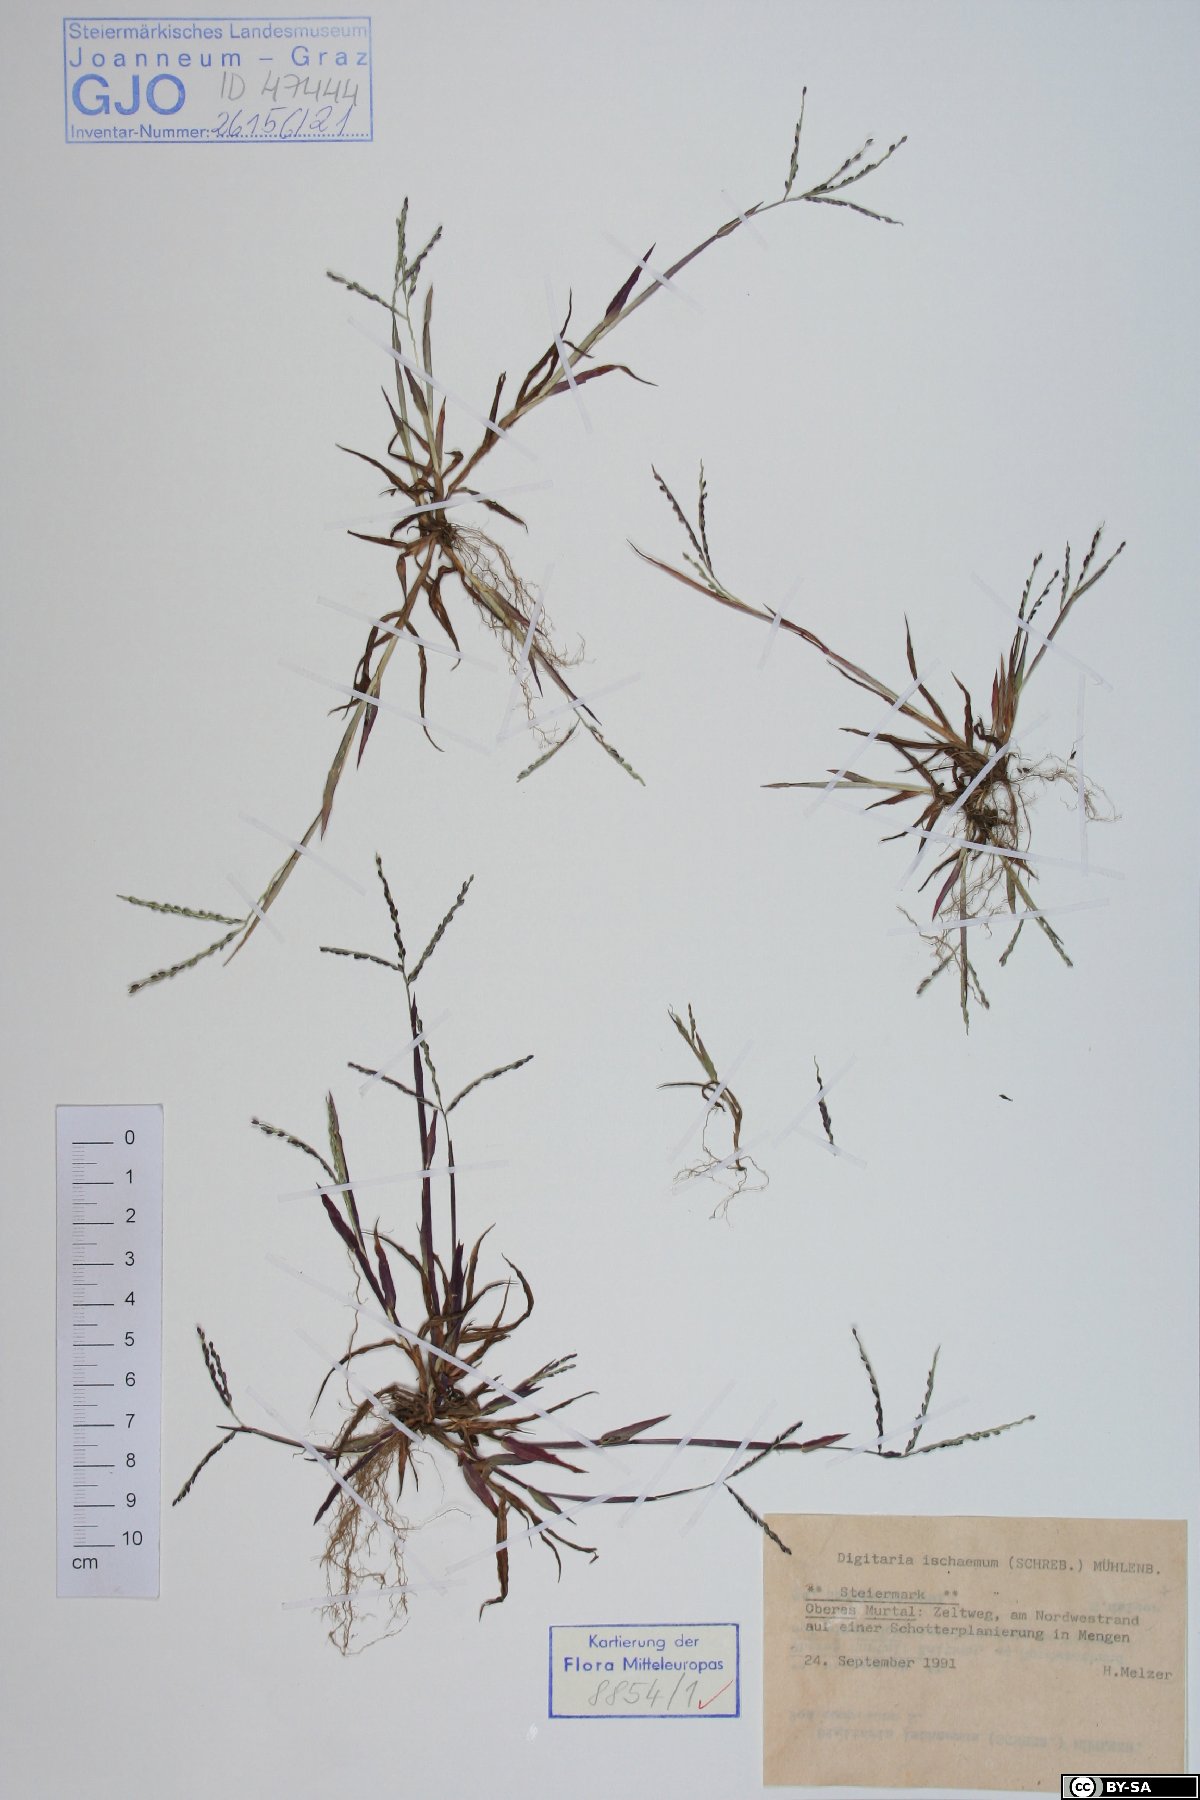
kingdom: Plantae
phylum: Tracheophyta
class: Liliopsida
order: Poales
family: Poaceae
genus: Digitaria
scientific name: Digitaria ischaemum
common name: Smooth crabgrass
